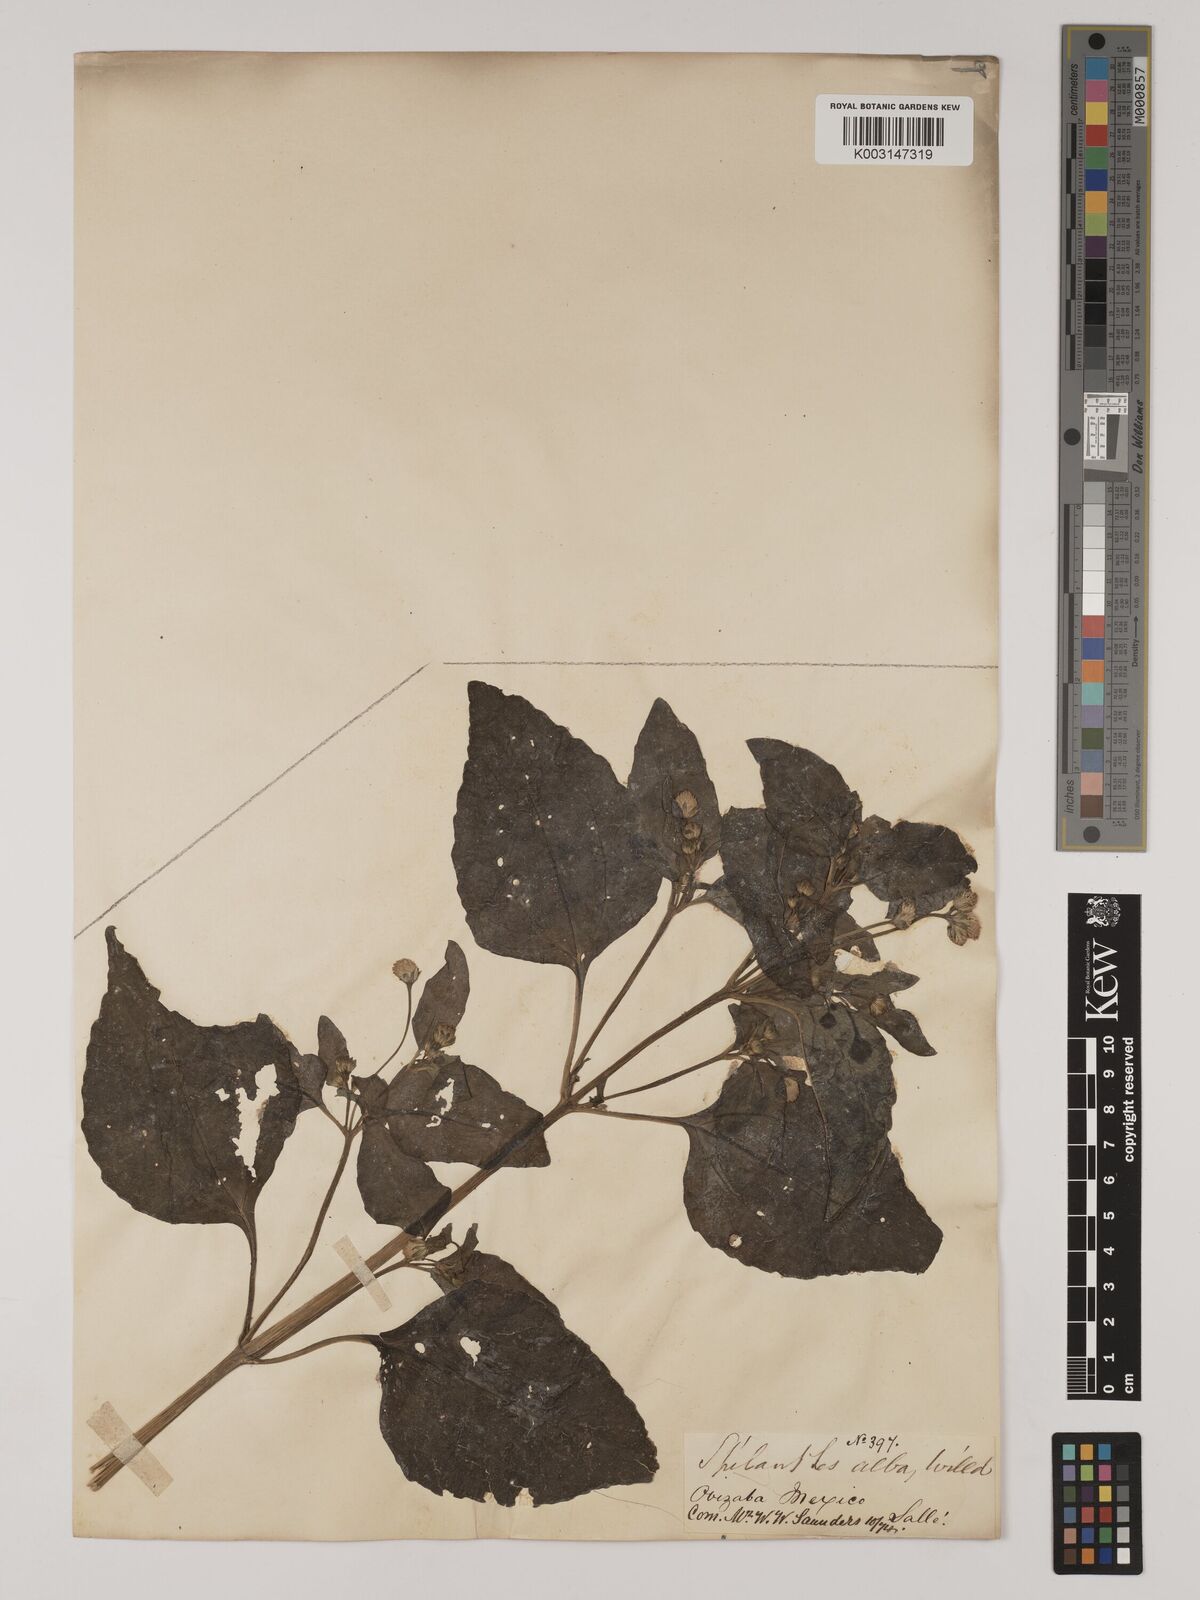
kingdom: Plantae
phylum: Tracheophyta
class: Magnoliopsida
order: Asterales
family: Asteraceae
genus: Acmella
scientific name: Acmella radicans
